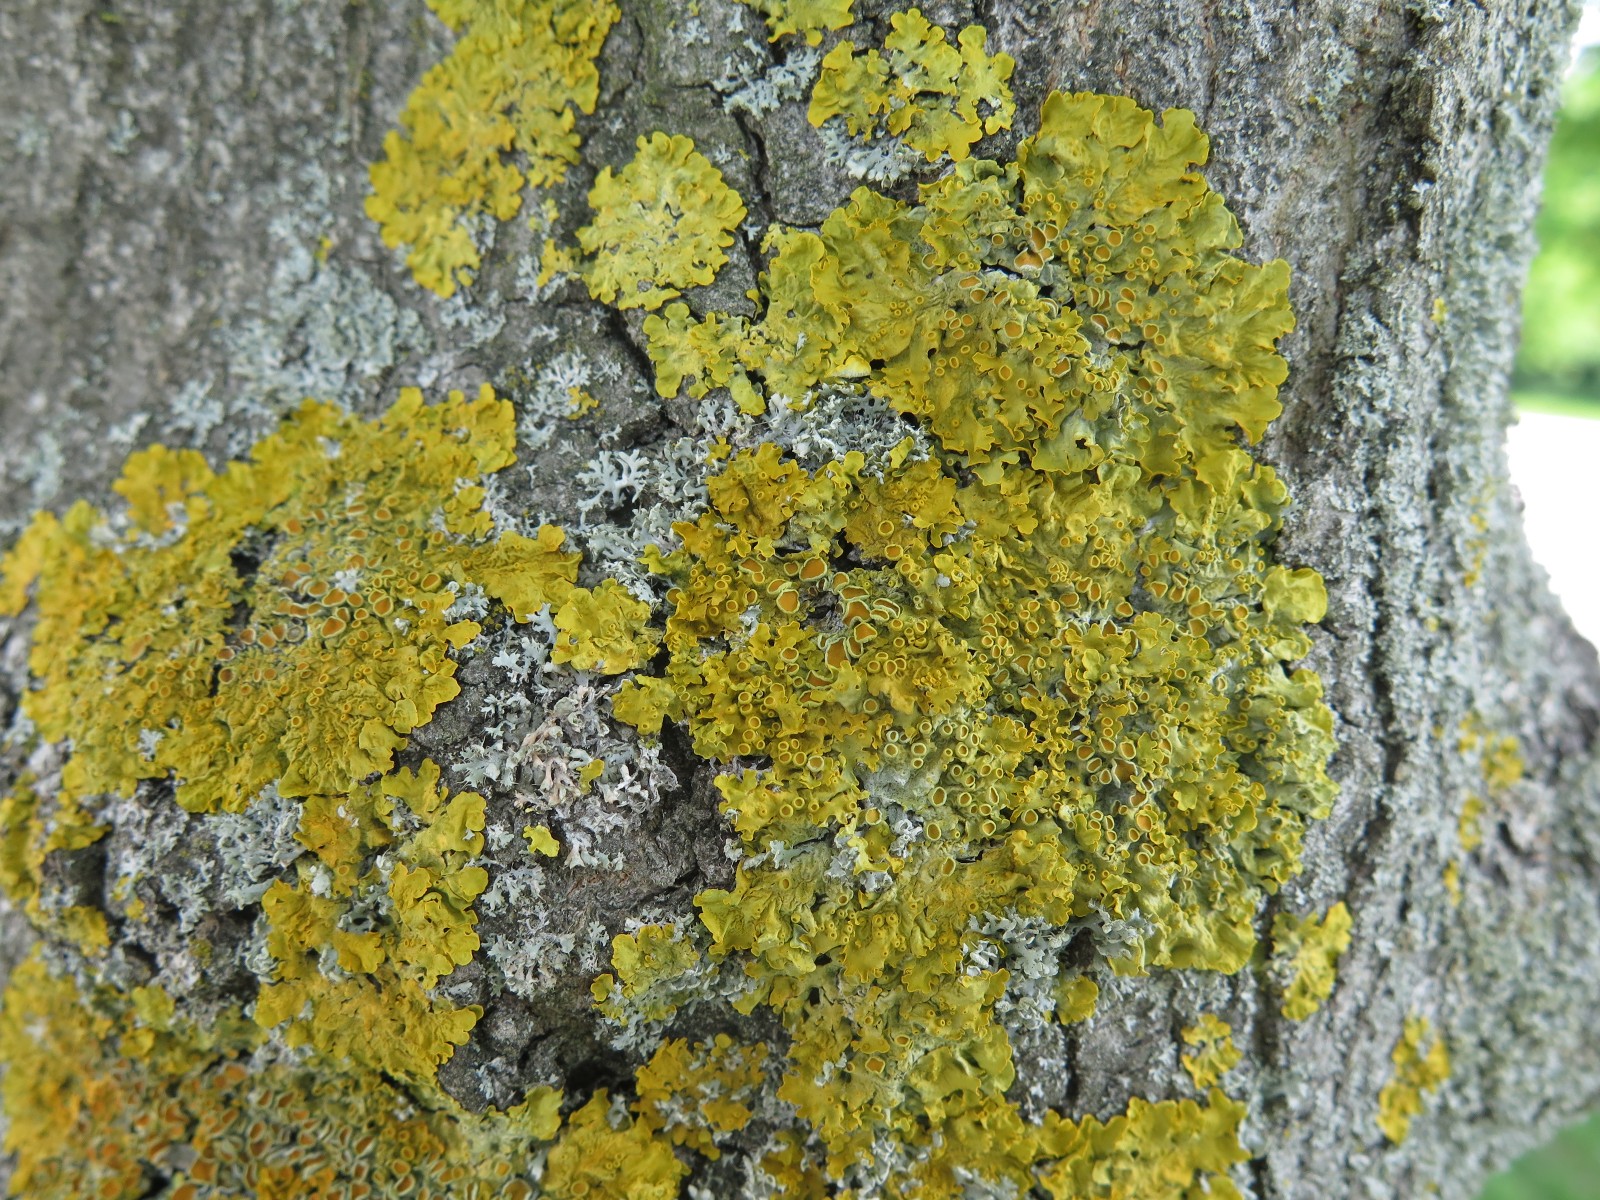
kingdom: Fungi
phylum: Ascomycota
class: Lecanoromycetes
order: Teloschistales
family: Teloschistaceae
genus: Xanthoria
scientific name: Xanthoria parietina
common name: almindelig væggelav
